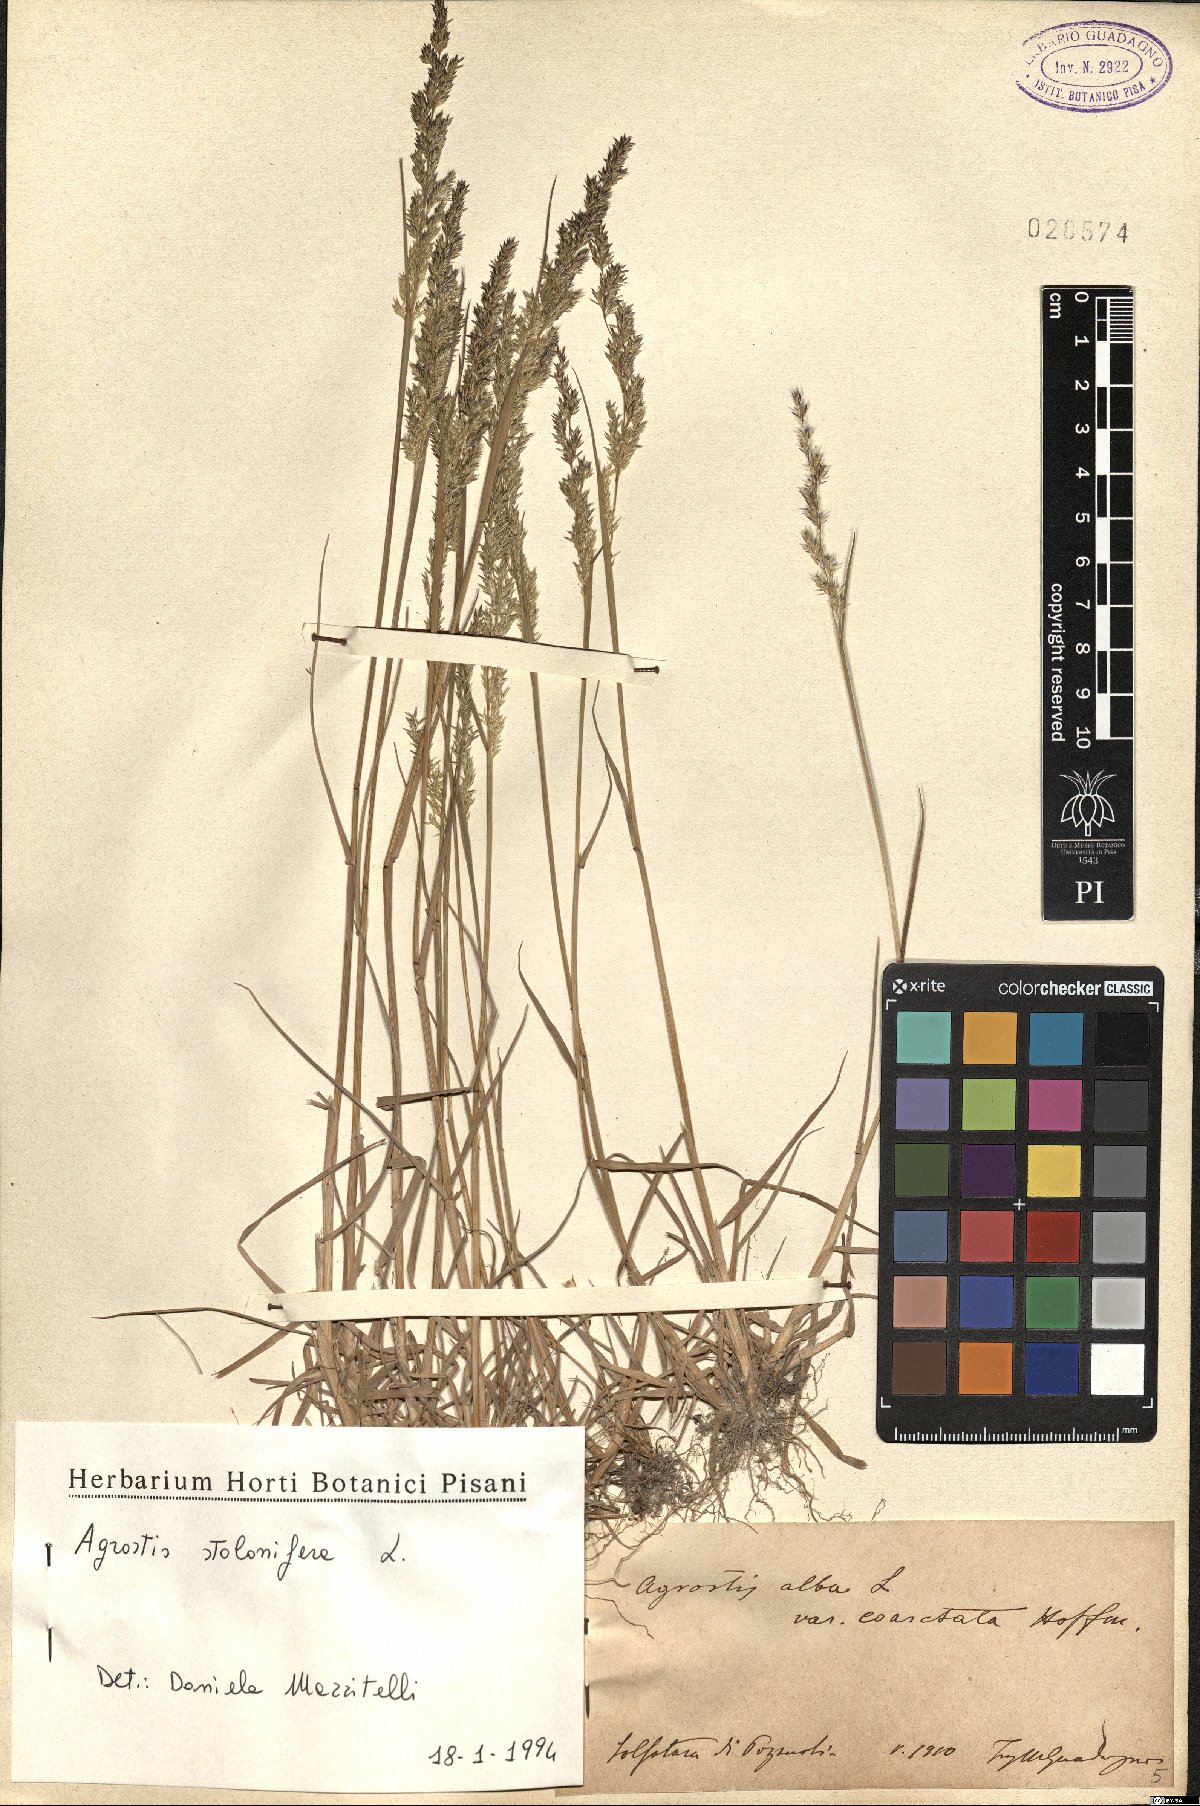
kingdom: Plantae
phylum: Tracheophyta
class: Liliopsida
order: Poales
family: Poaceae
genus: Agrostis
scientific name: Agrostis stolonifera
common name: Creeping bentgrass
